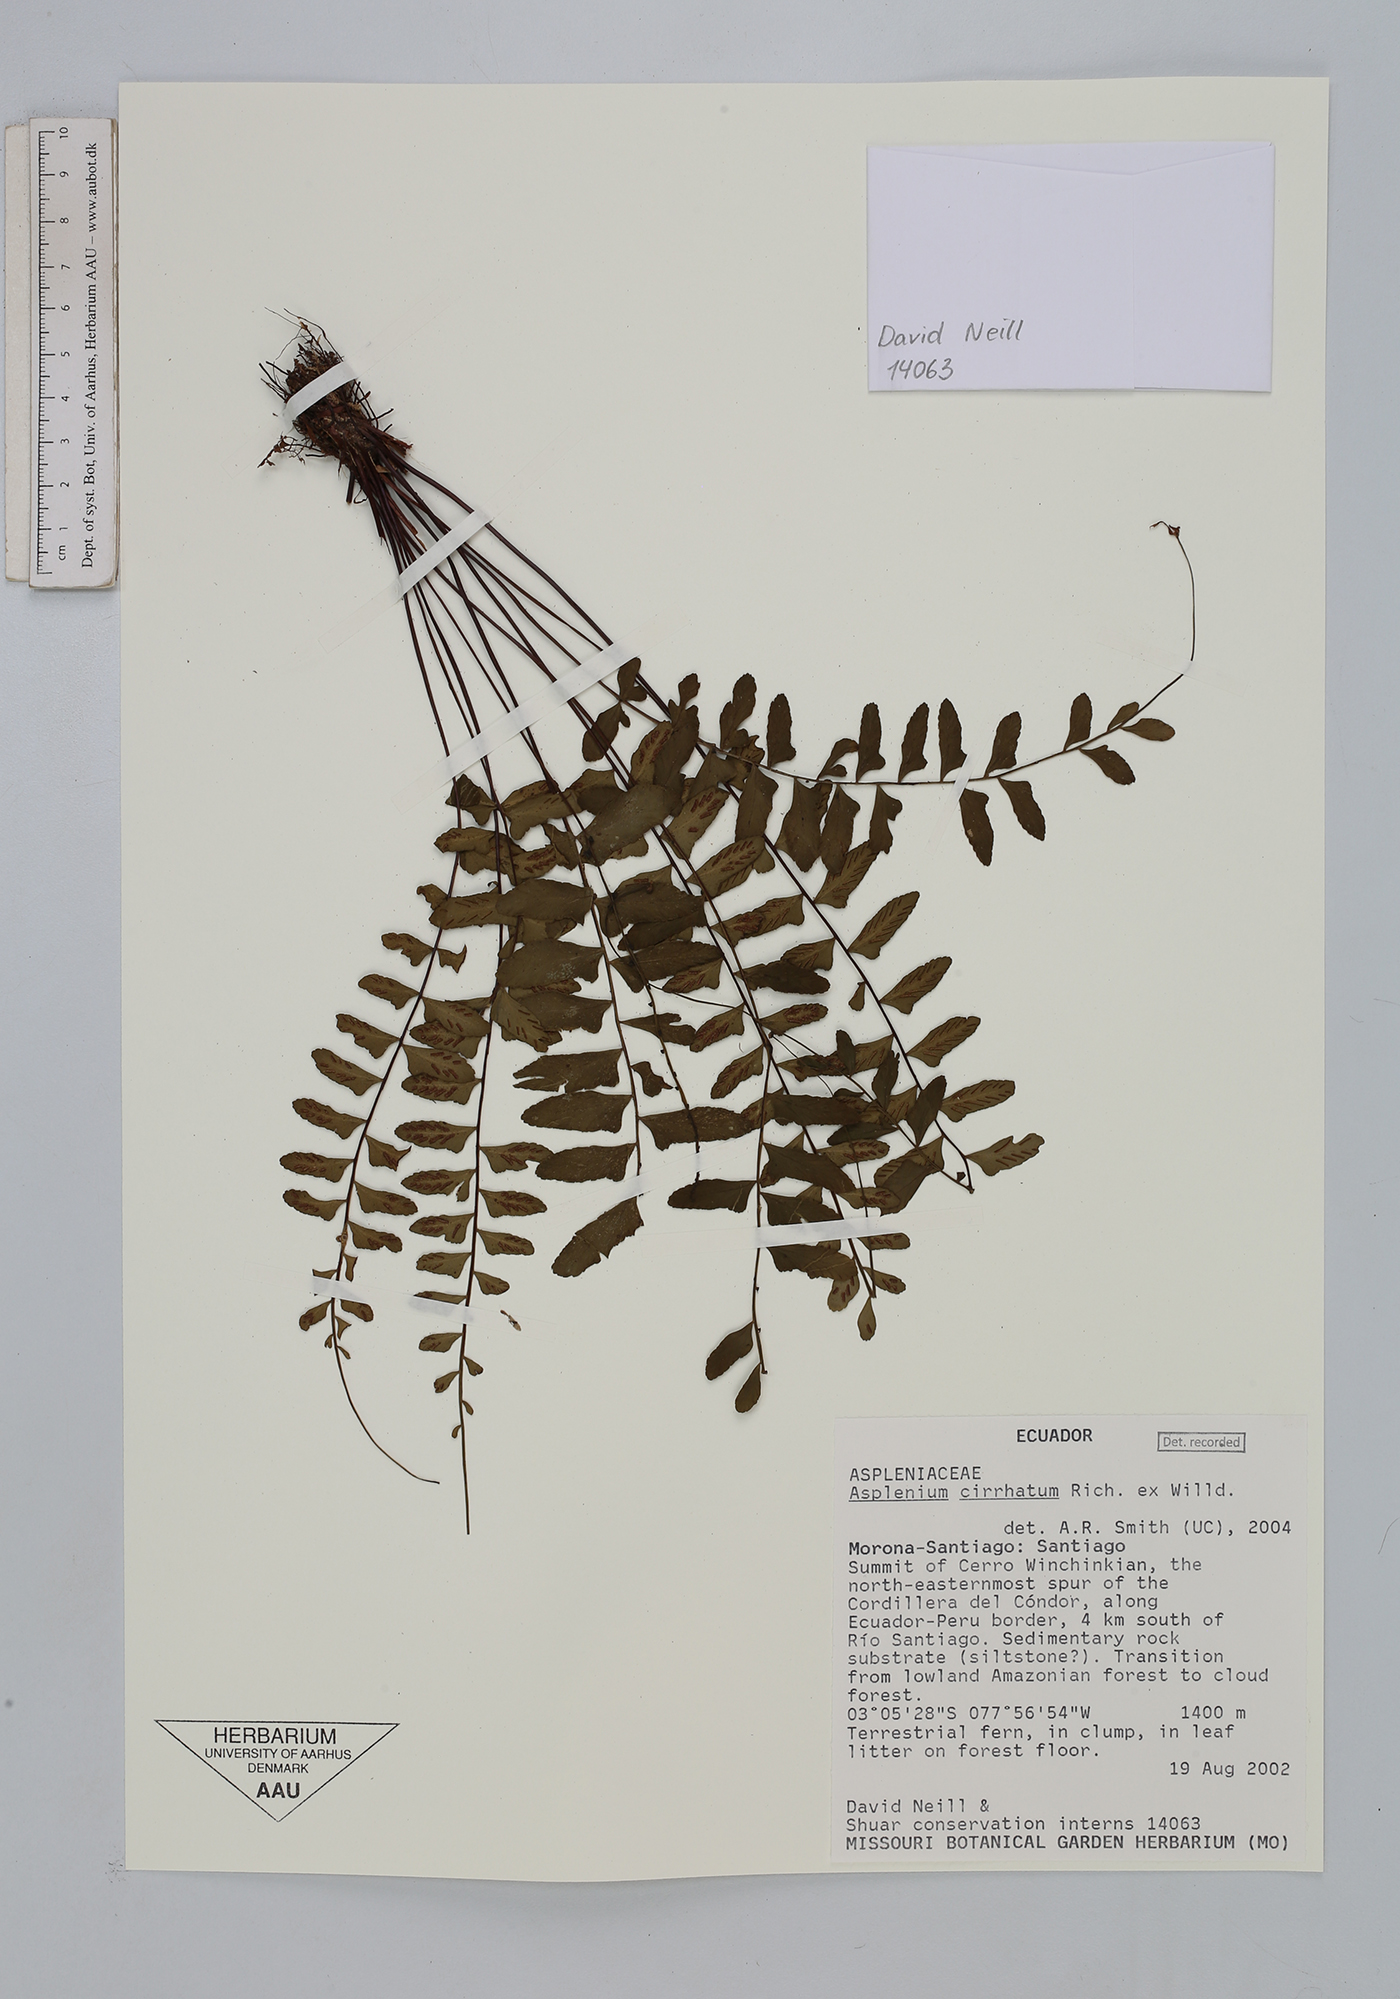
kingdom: Plantae
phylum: Tracheophyta
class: Polypodiopsida
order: Polypodiales
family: Aspleniaceae
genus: Asplenium
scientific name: Asplenium cirrhatum
